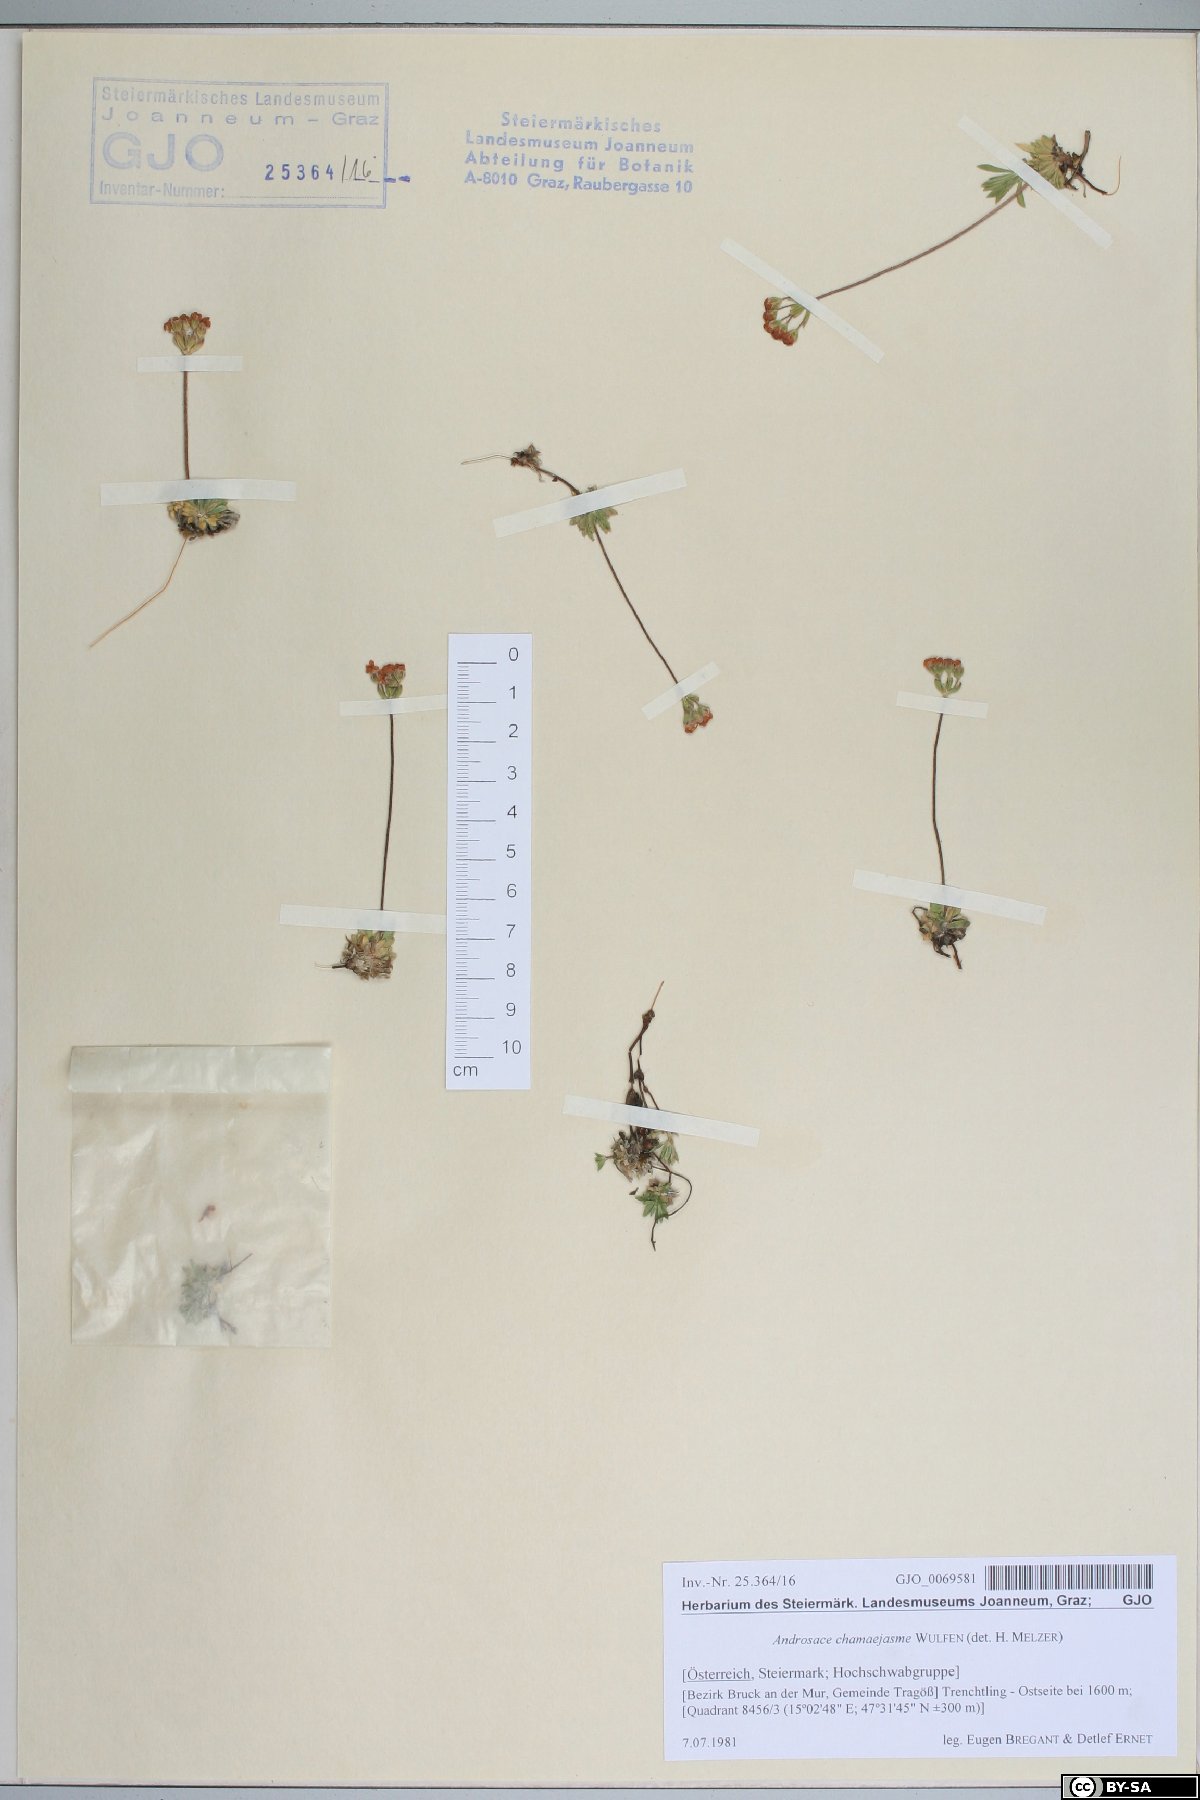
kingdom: Plantae
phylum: Tracheophyta
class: Magnoliopsida
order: Ericales
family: Primulaceae
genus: Androsace
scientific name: Androsace chamaejasme
